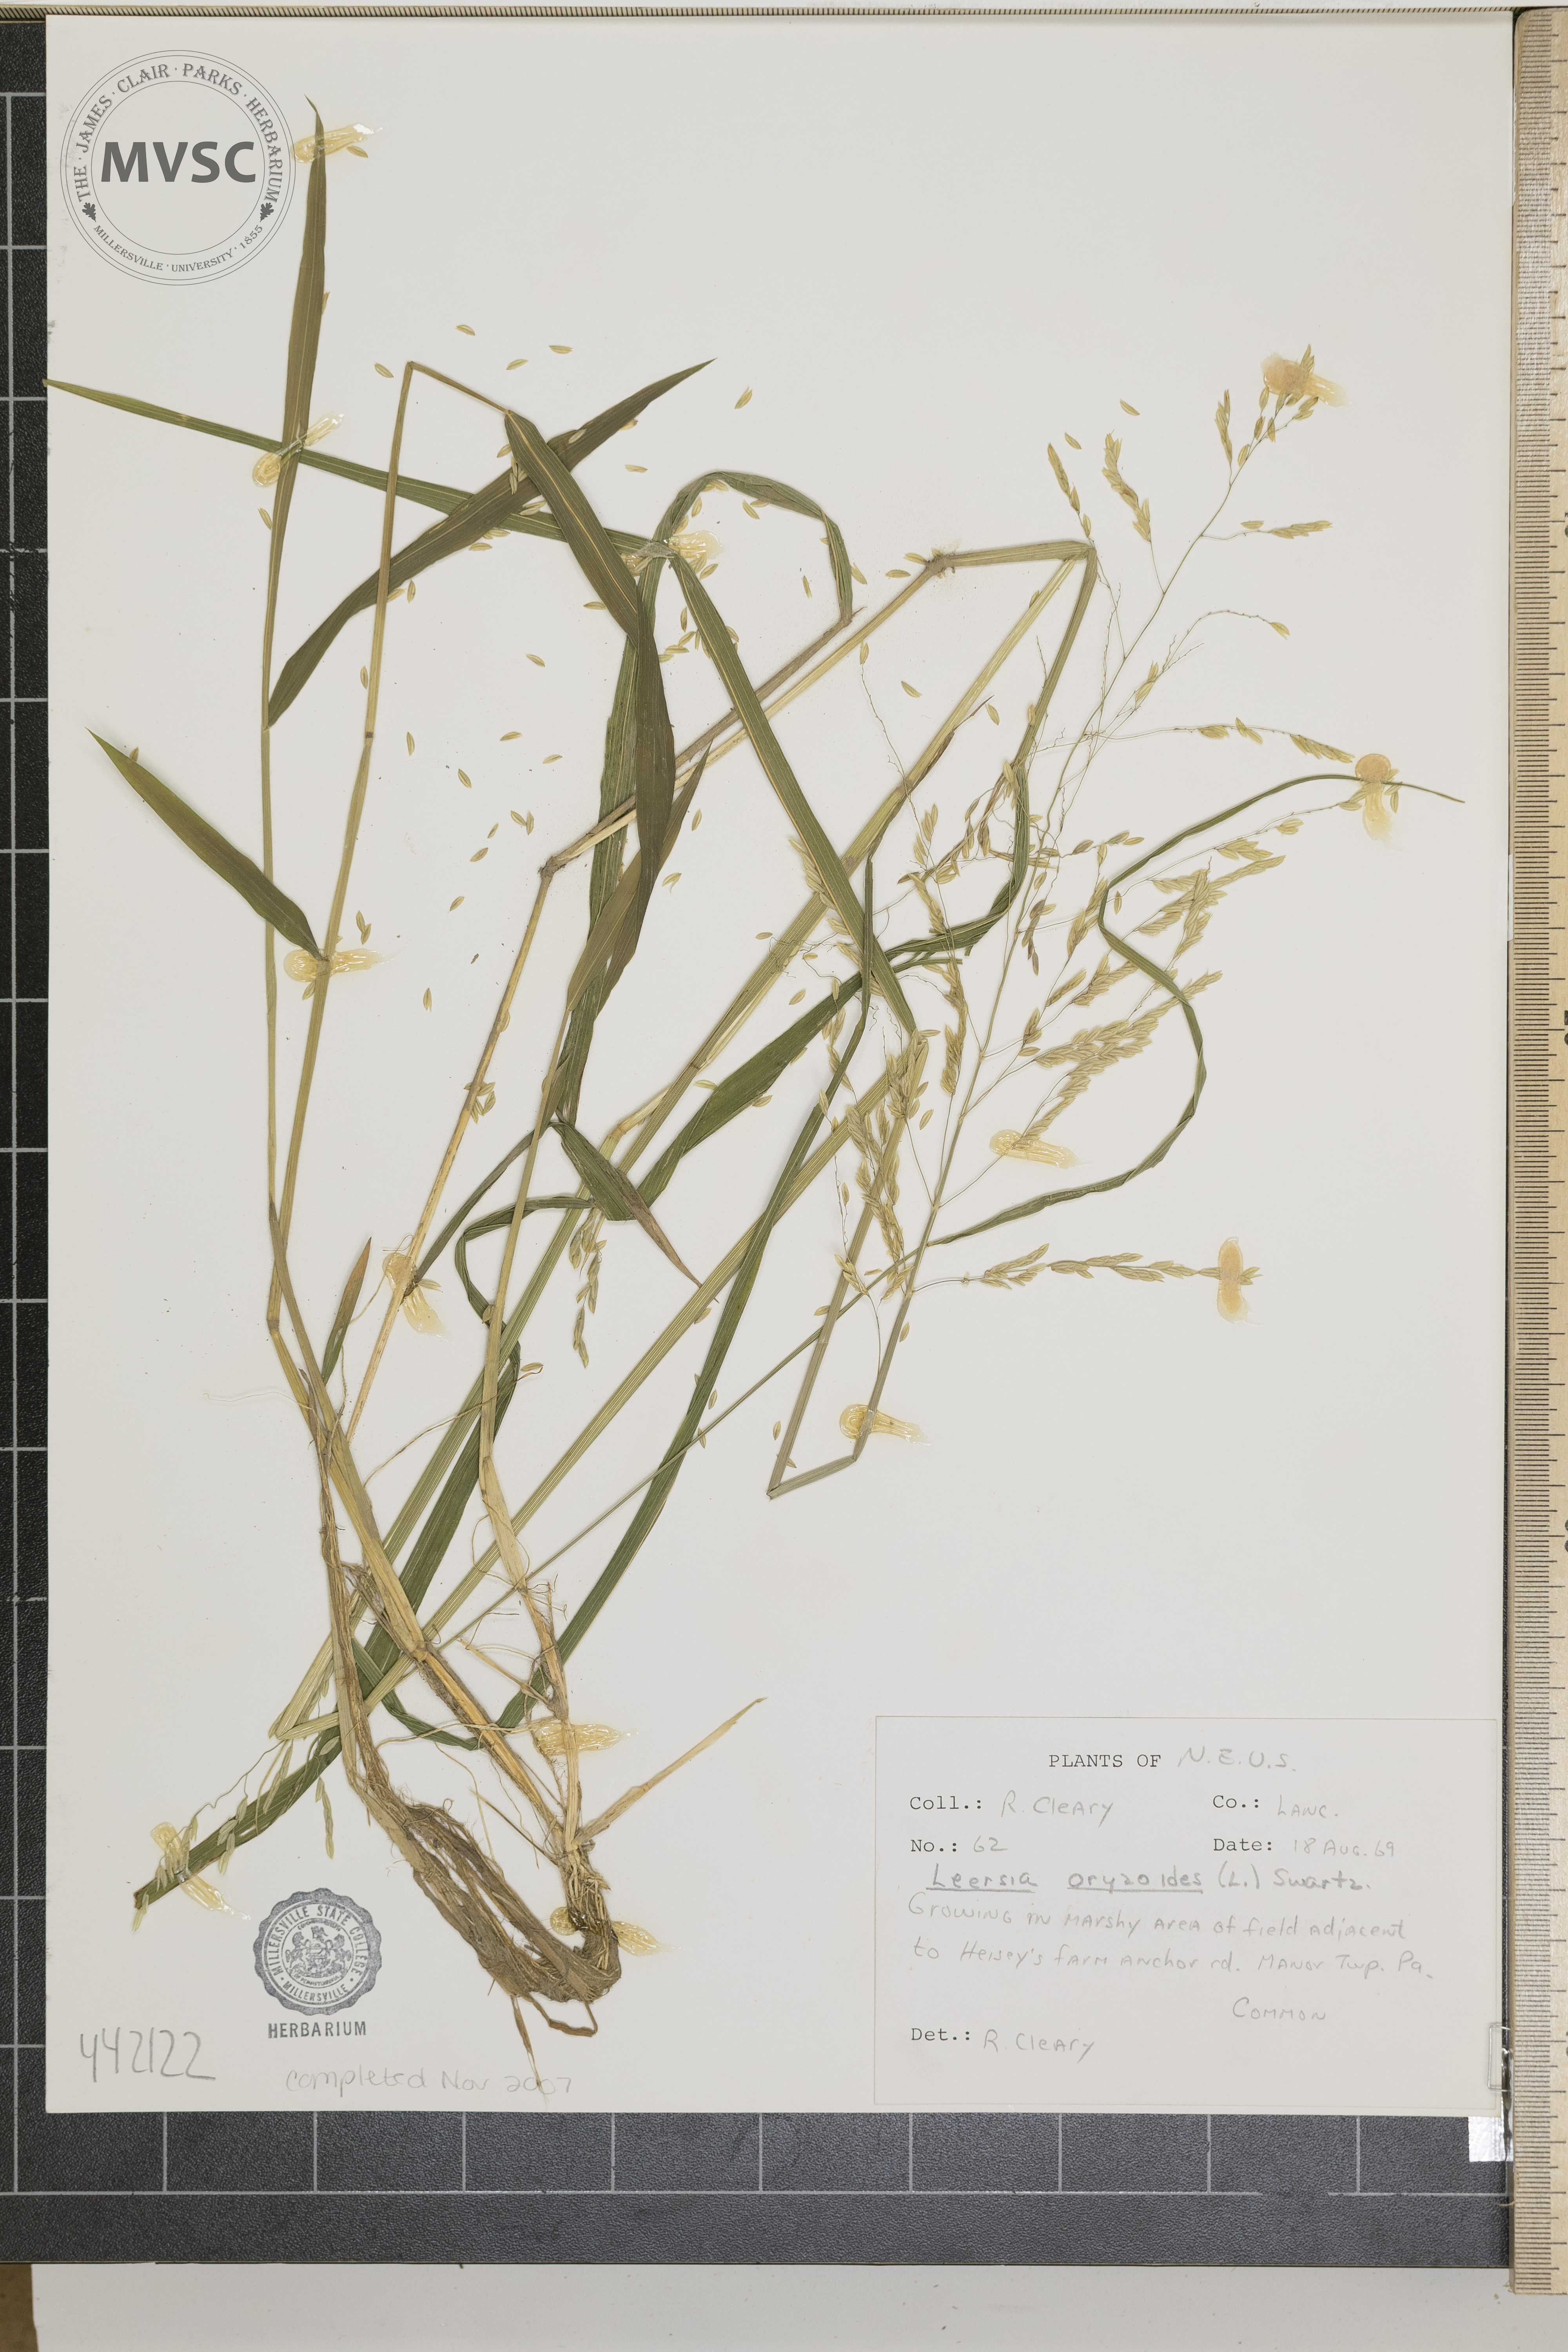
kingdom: Plantae
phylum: Tracheophyta
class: Liliopsida
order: Poales
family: Poaceae
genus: Leersia
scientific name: Leersia oryzoides
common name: Cut-grass
